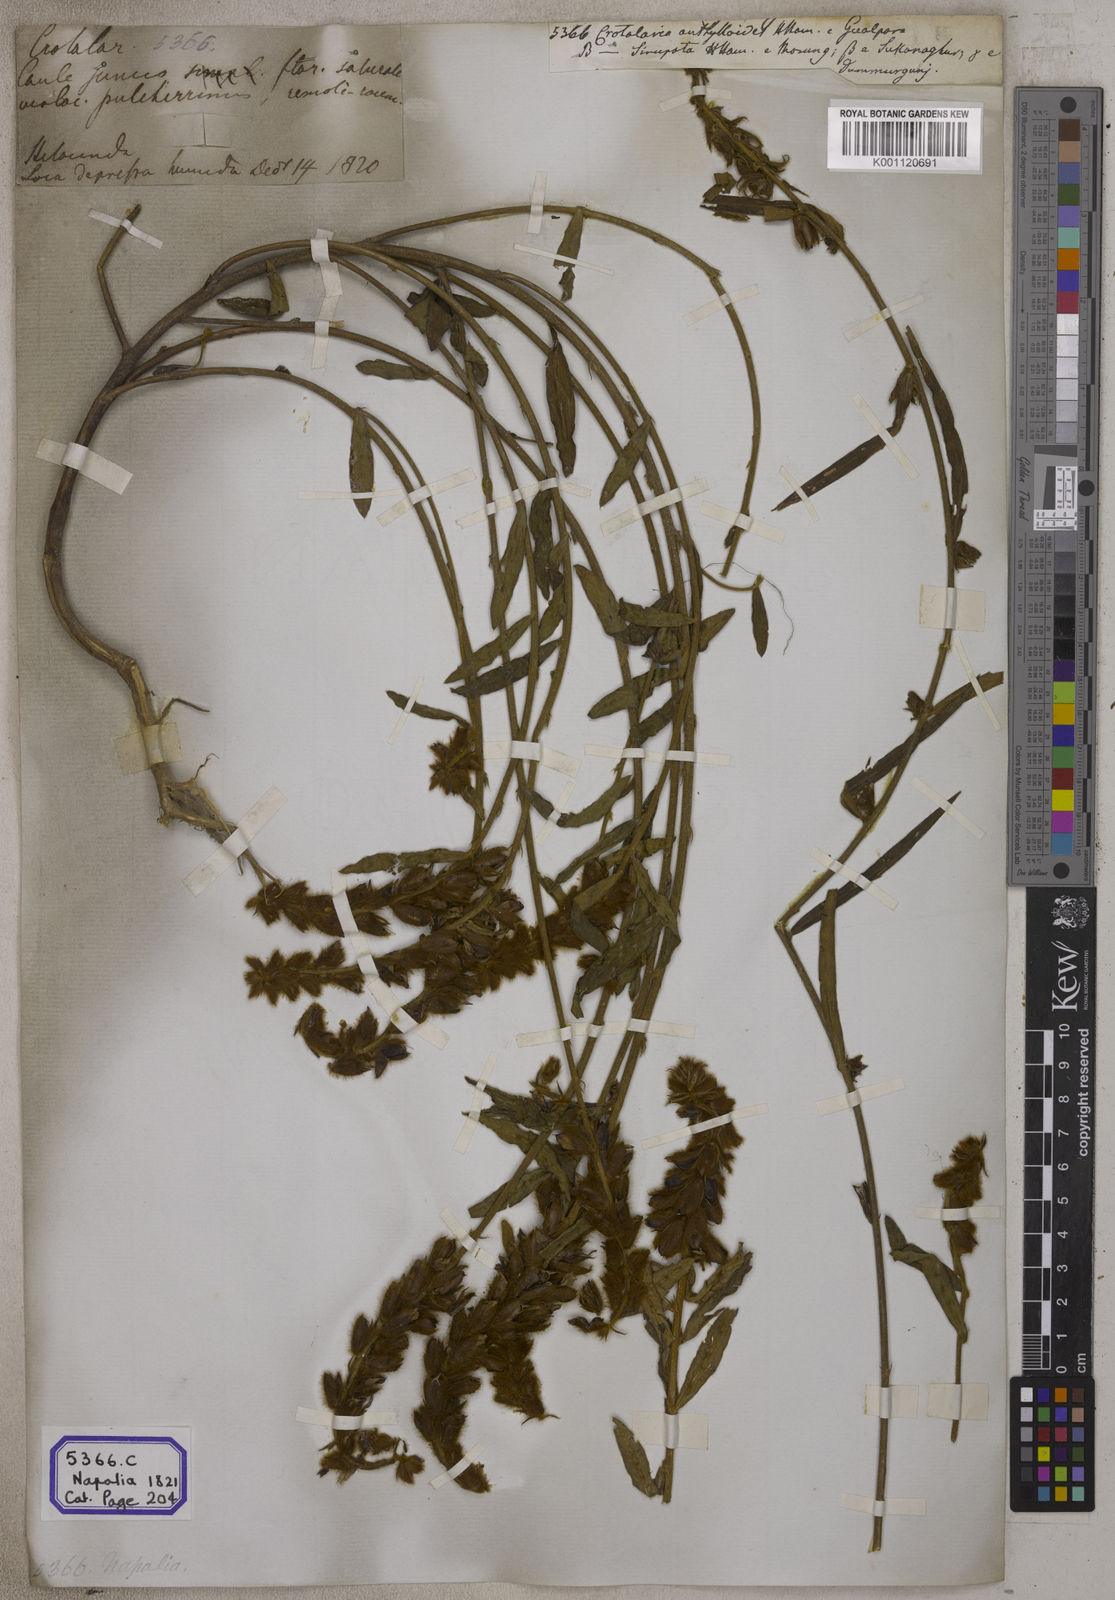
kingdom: Plantae
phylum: Tracheophyta
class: Magnoliopsida
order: Fabales
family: Fabaceae
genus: Crotalaria
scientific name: Crotalaria sessiliflora
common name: Rattlebox
